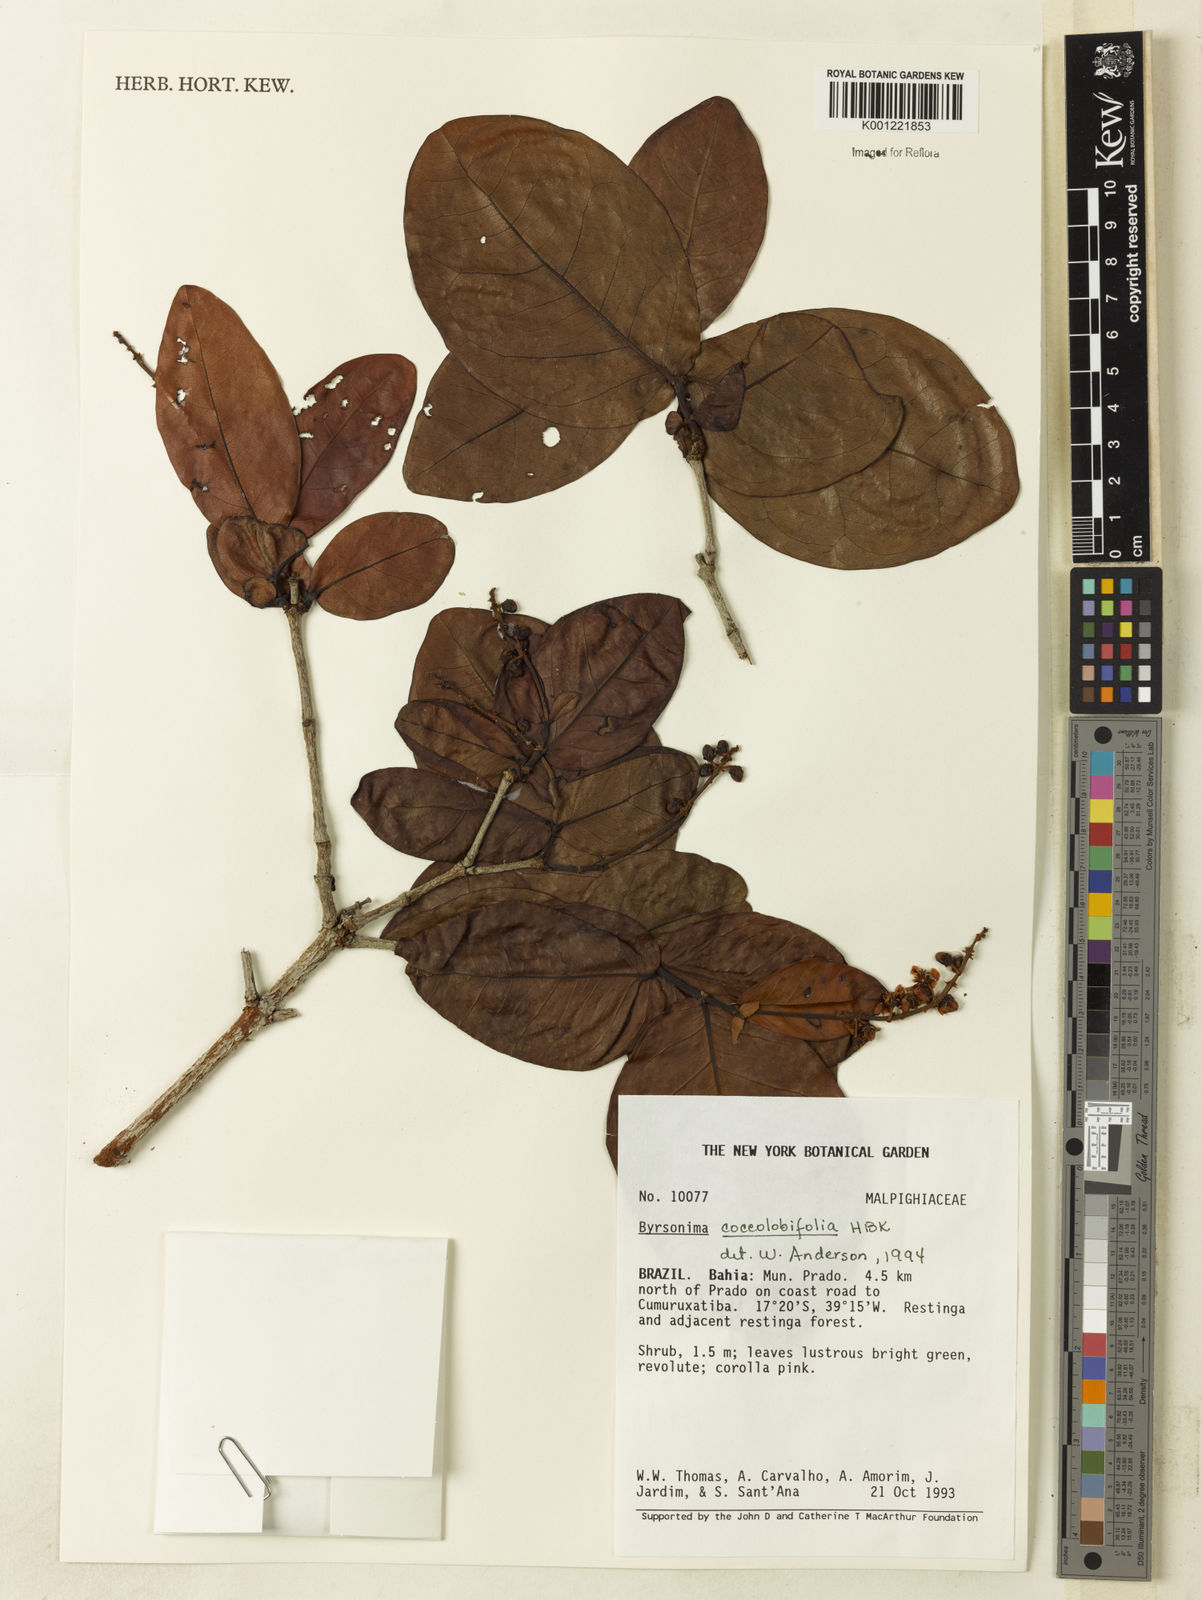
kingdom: Plantae
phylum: Tracheophyta
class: Magnoliopsida
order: Malpighiales
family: Malpighiaceae
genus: Byrsonima
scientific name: Byrsonima coccolobifolia
